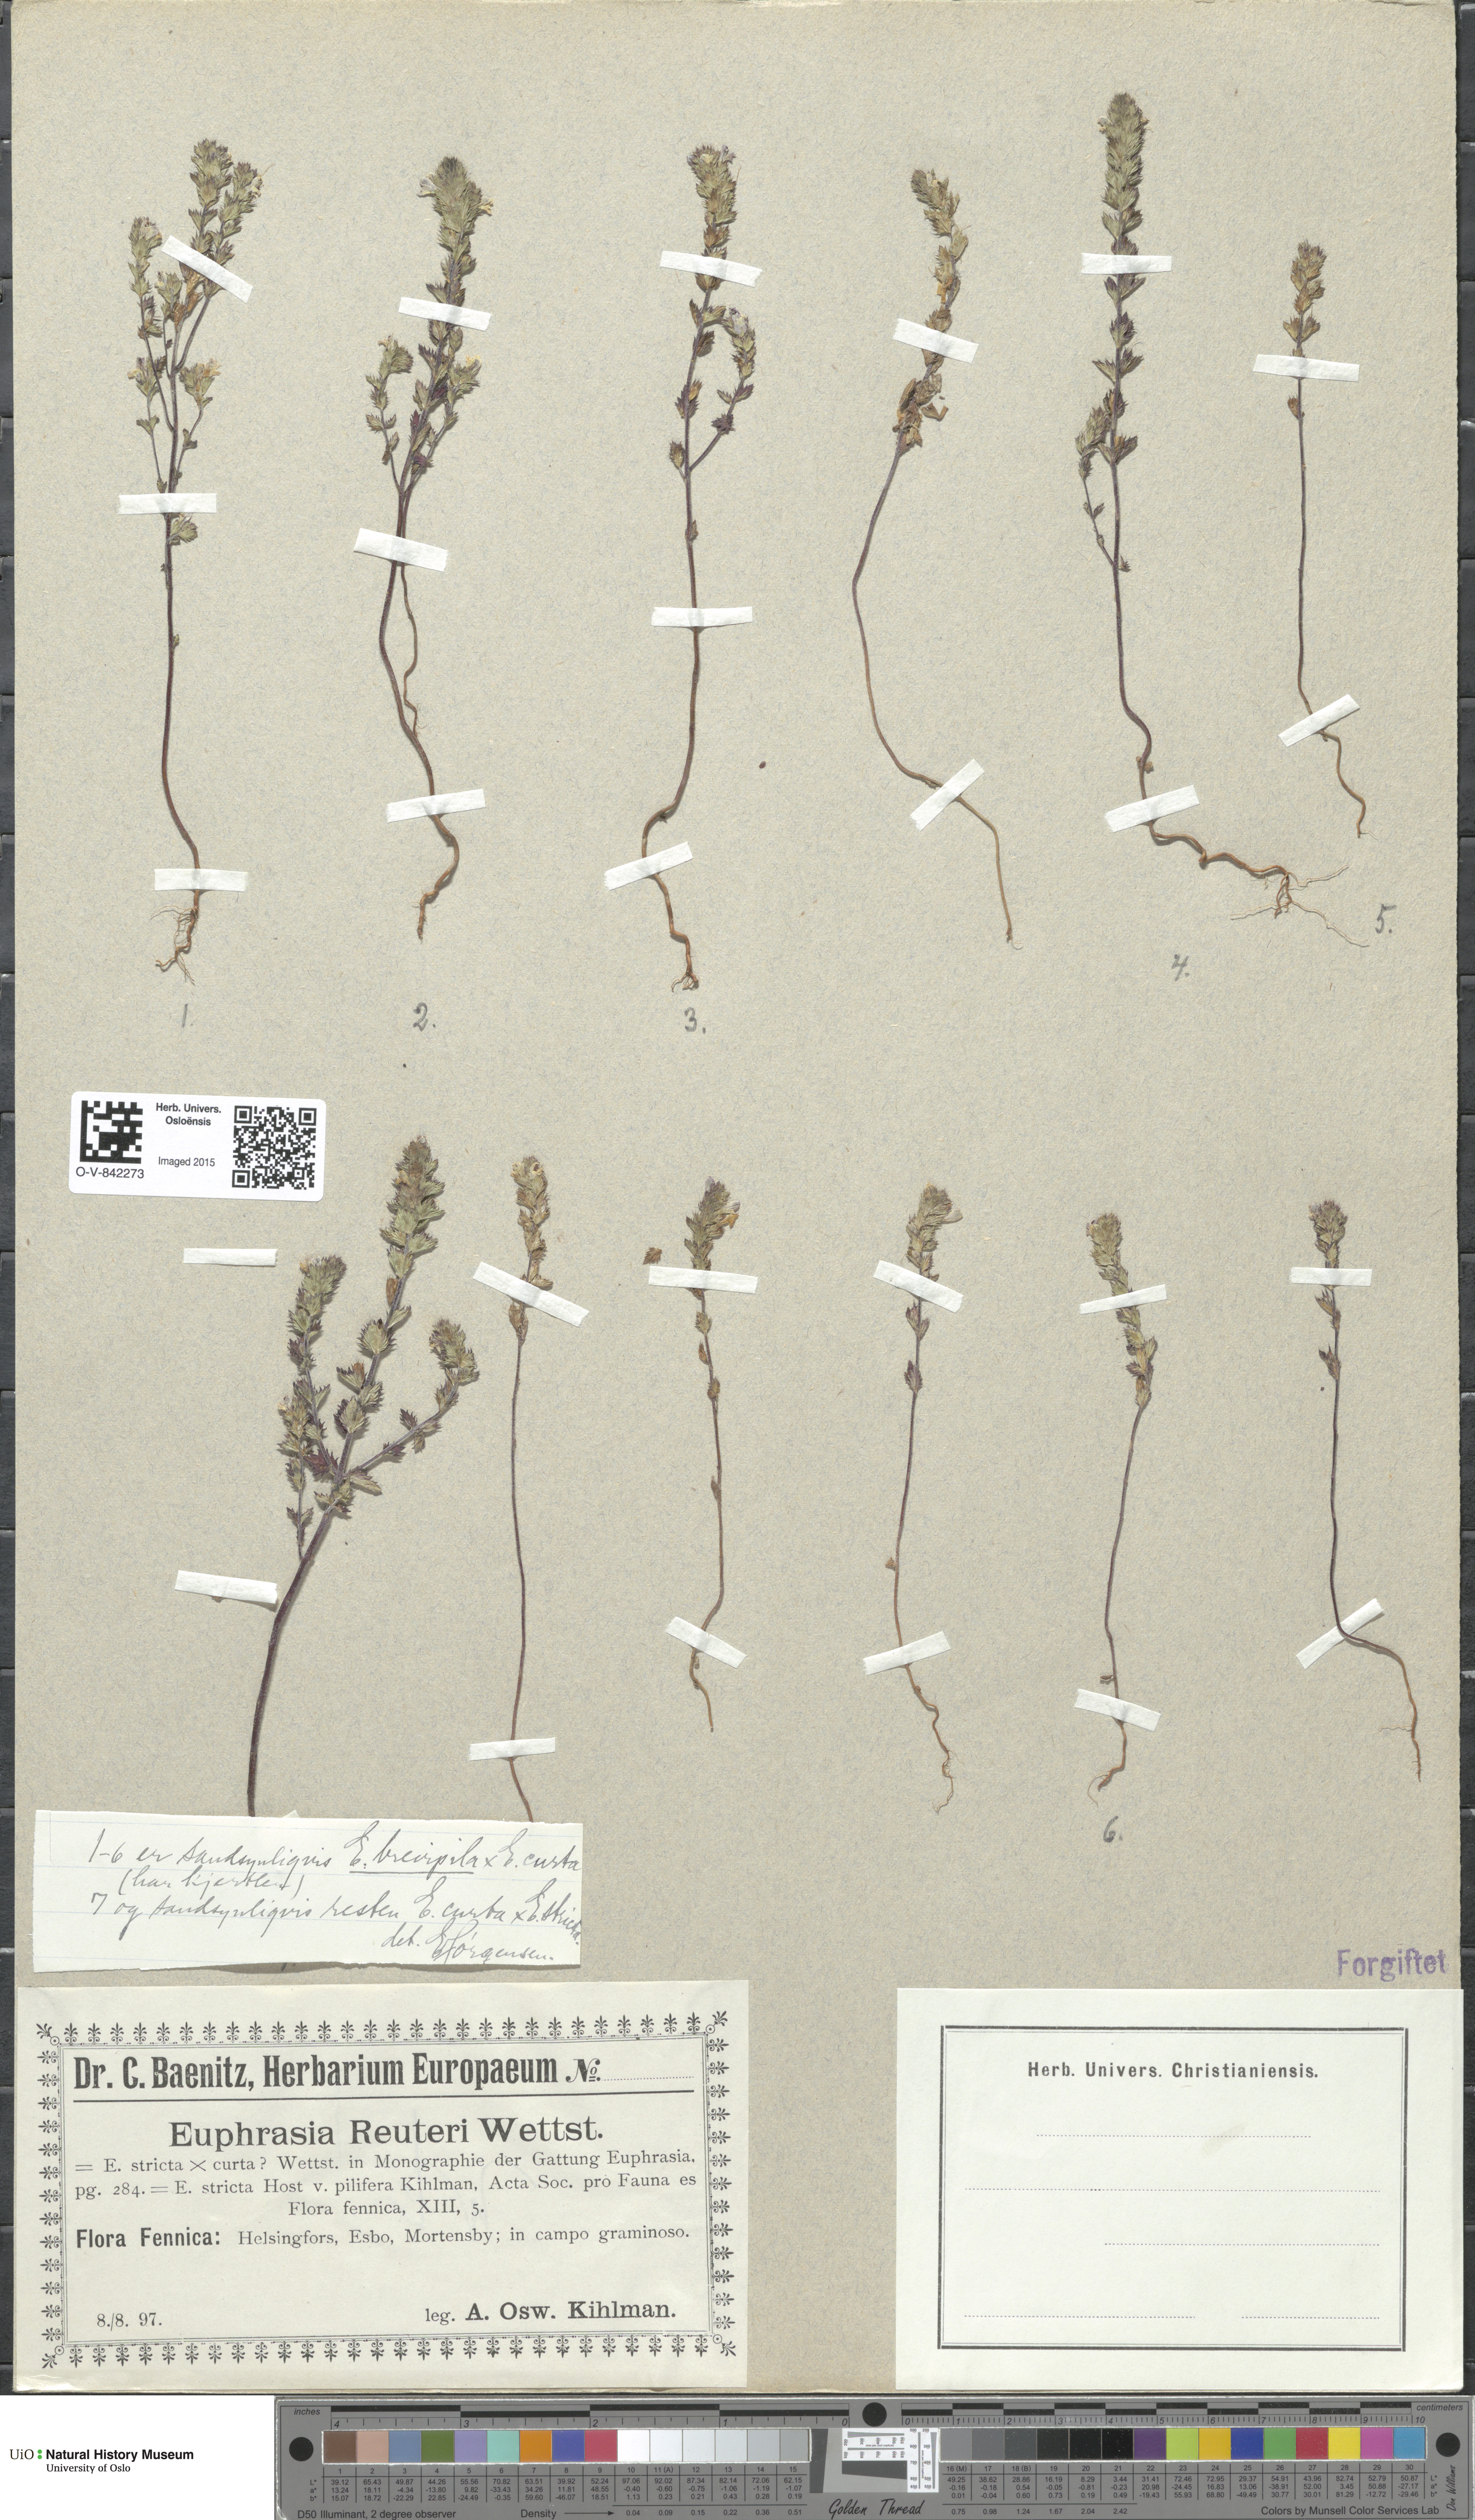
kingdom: Plantae
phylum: Tracheophyta
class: Magnoliopsida
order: Lamiales
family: Orobanchaceae
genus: Euphrasia
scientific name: Euphrasia
